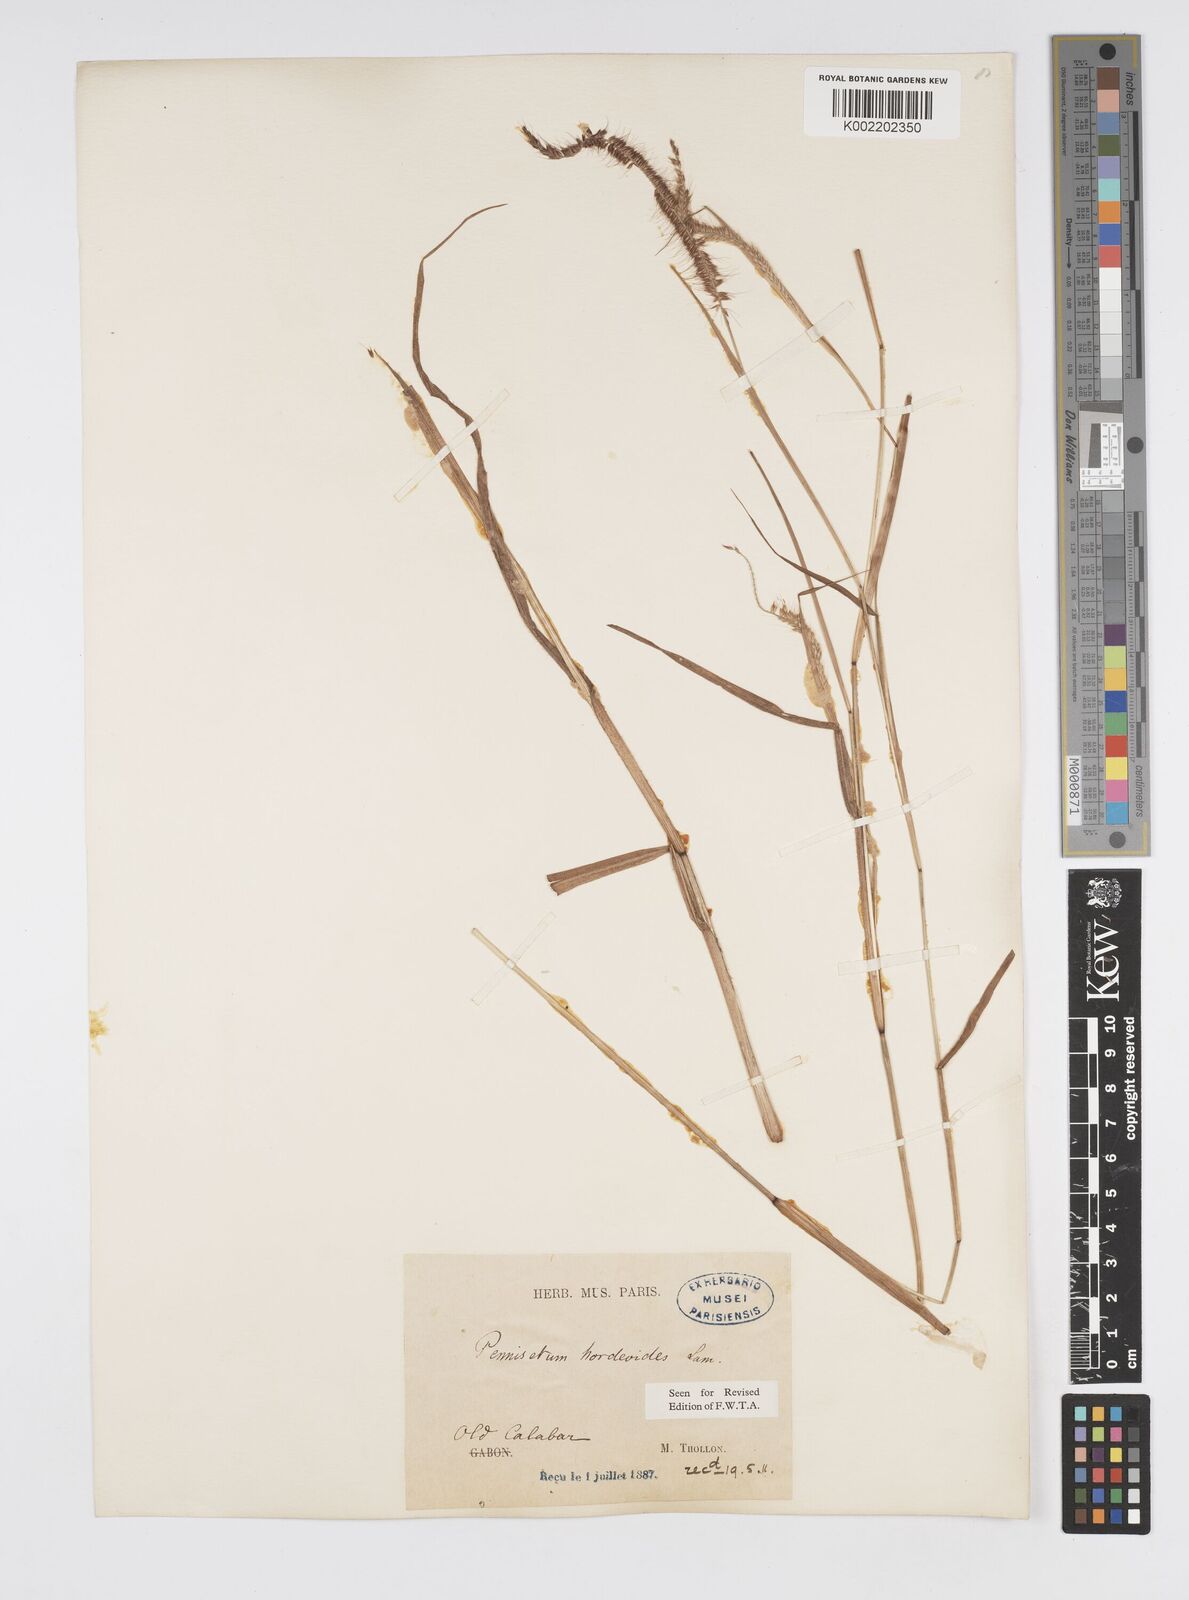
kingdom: Plantae
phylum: Tracheophyta
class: Liliopsida
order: Poales
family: Poaceae
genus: Cenchrus
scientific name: Cenchrus Pennisetum spec
